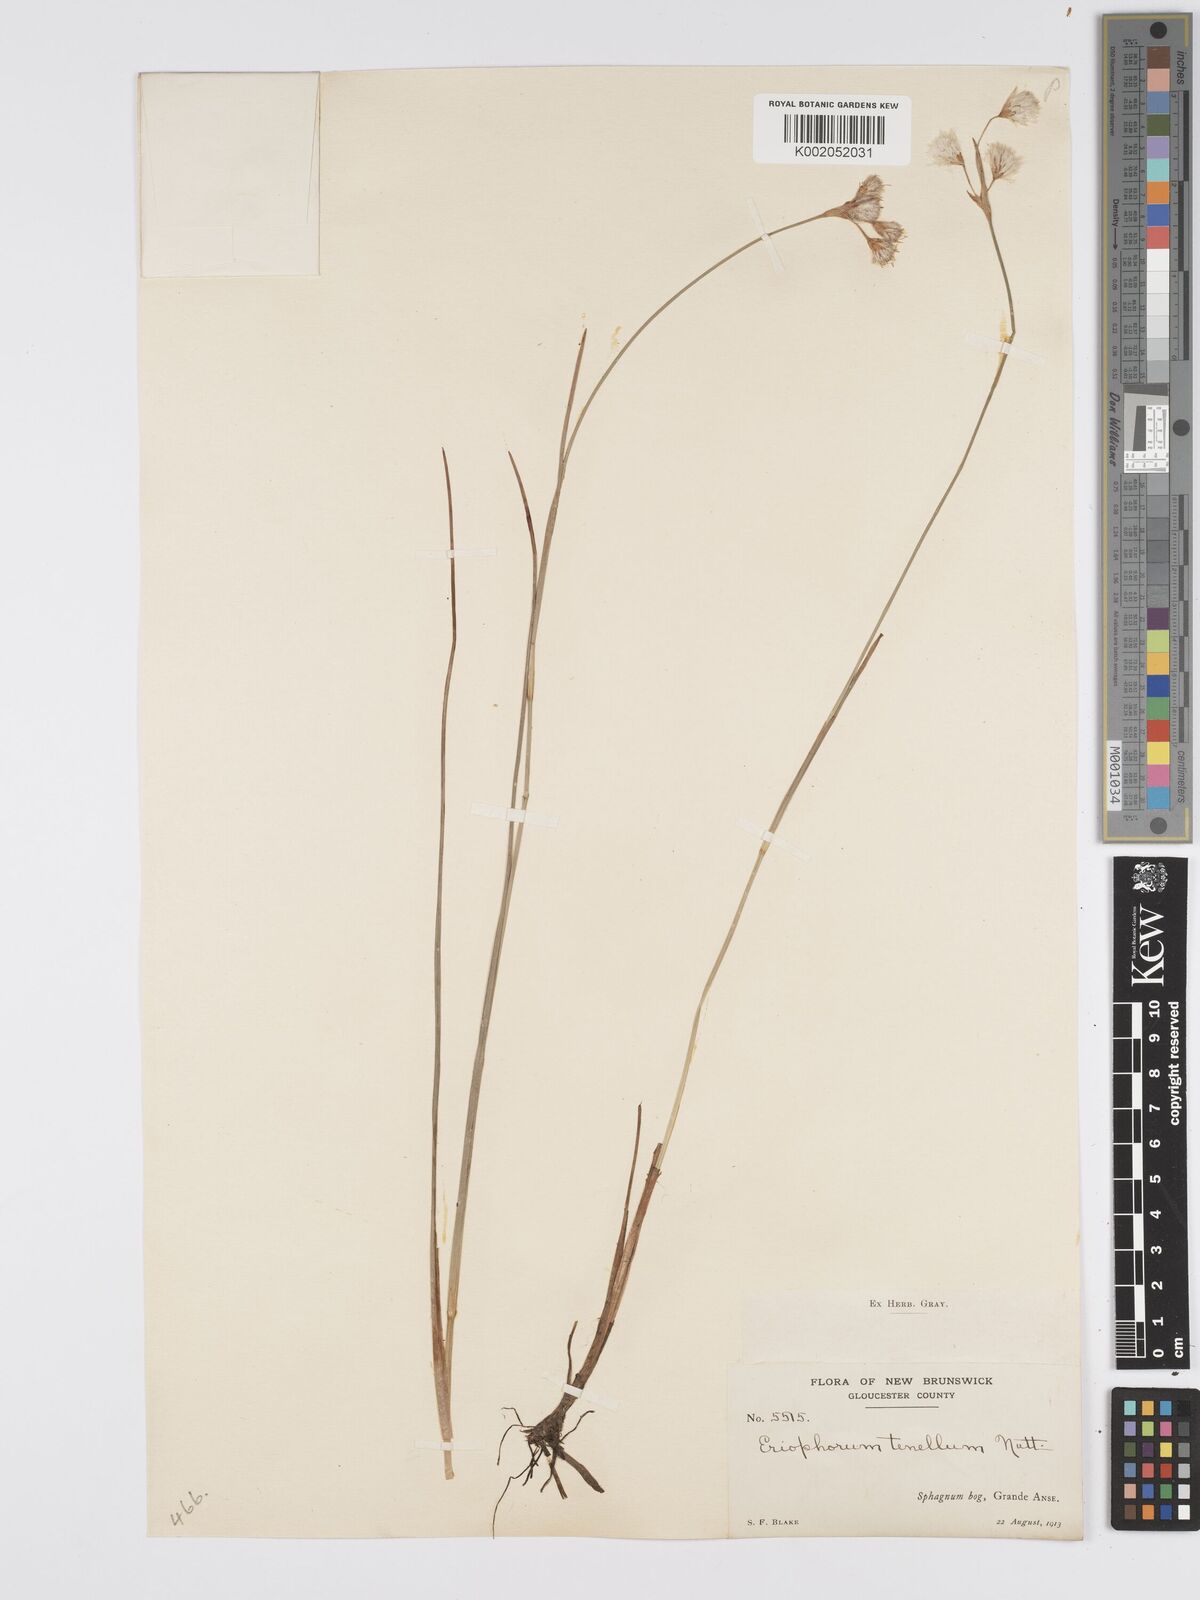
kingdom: Plantae
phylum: Tracheophyta
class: Liliopsida
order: Poales
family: Cyperaceae
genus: Eriophorum
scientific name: Eriophorum tenellum
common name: Few-nerved cottongrass
